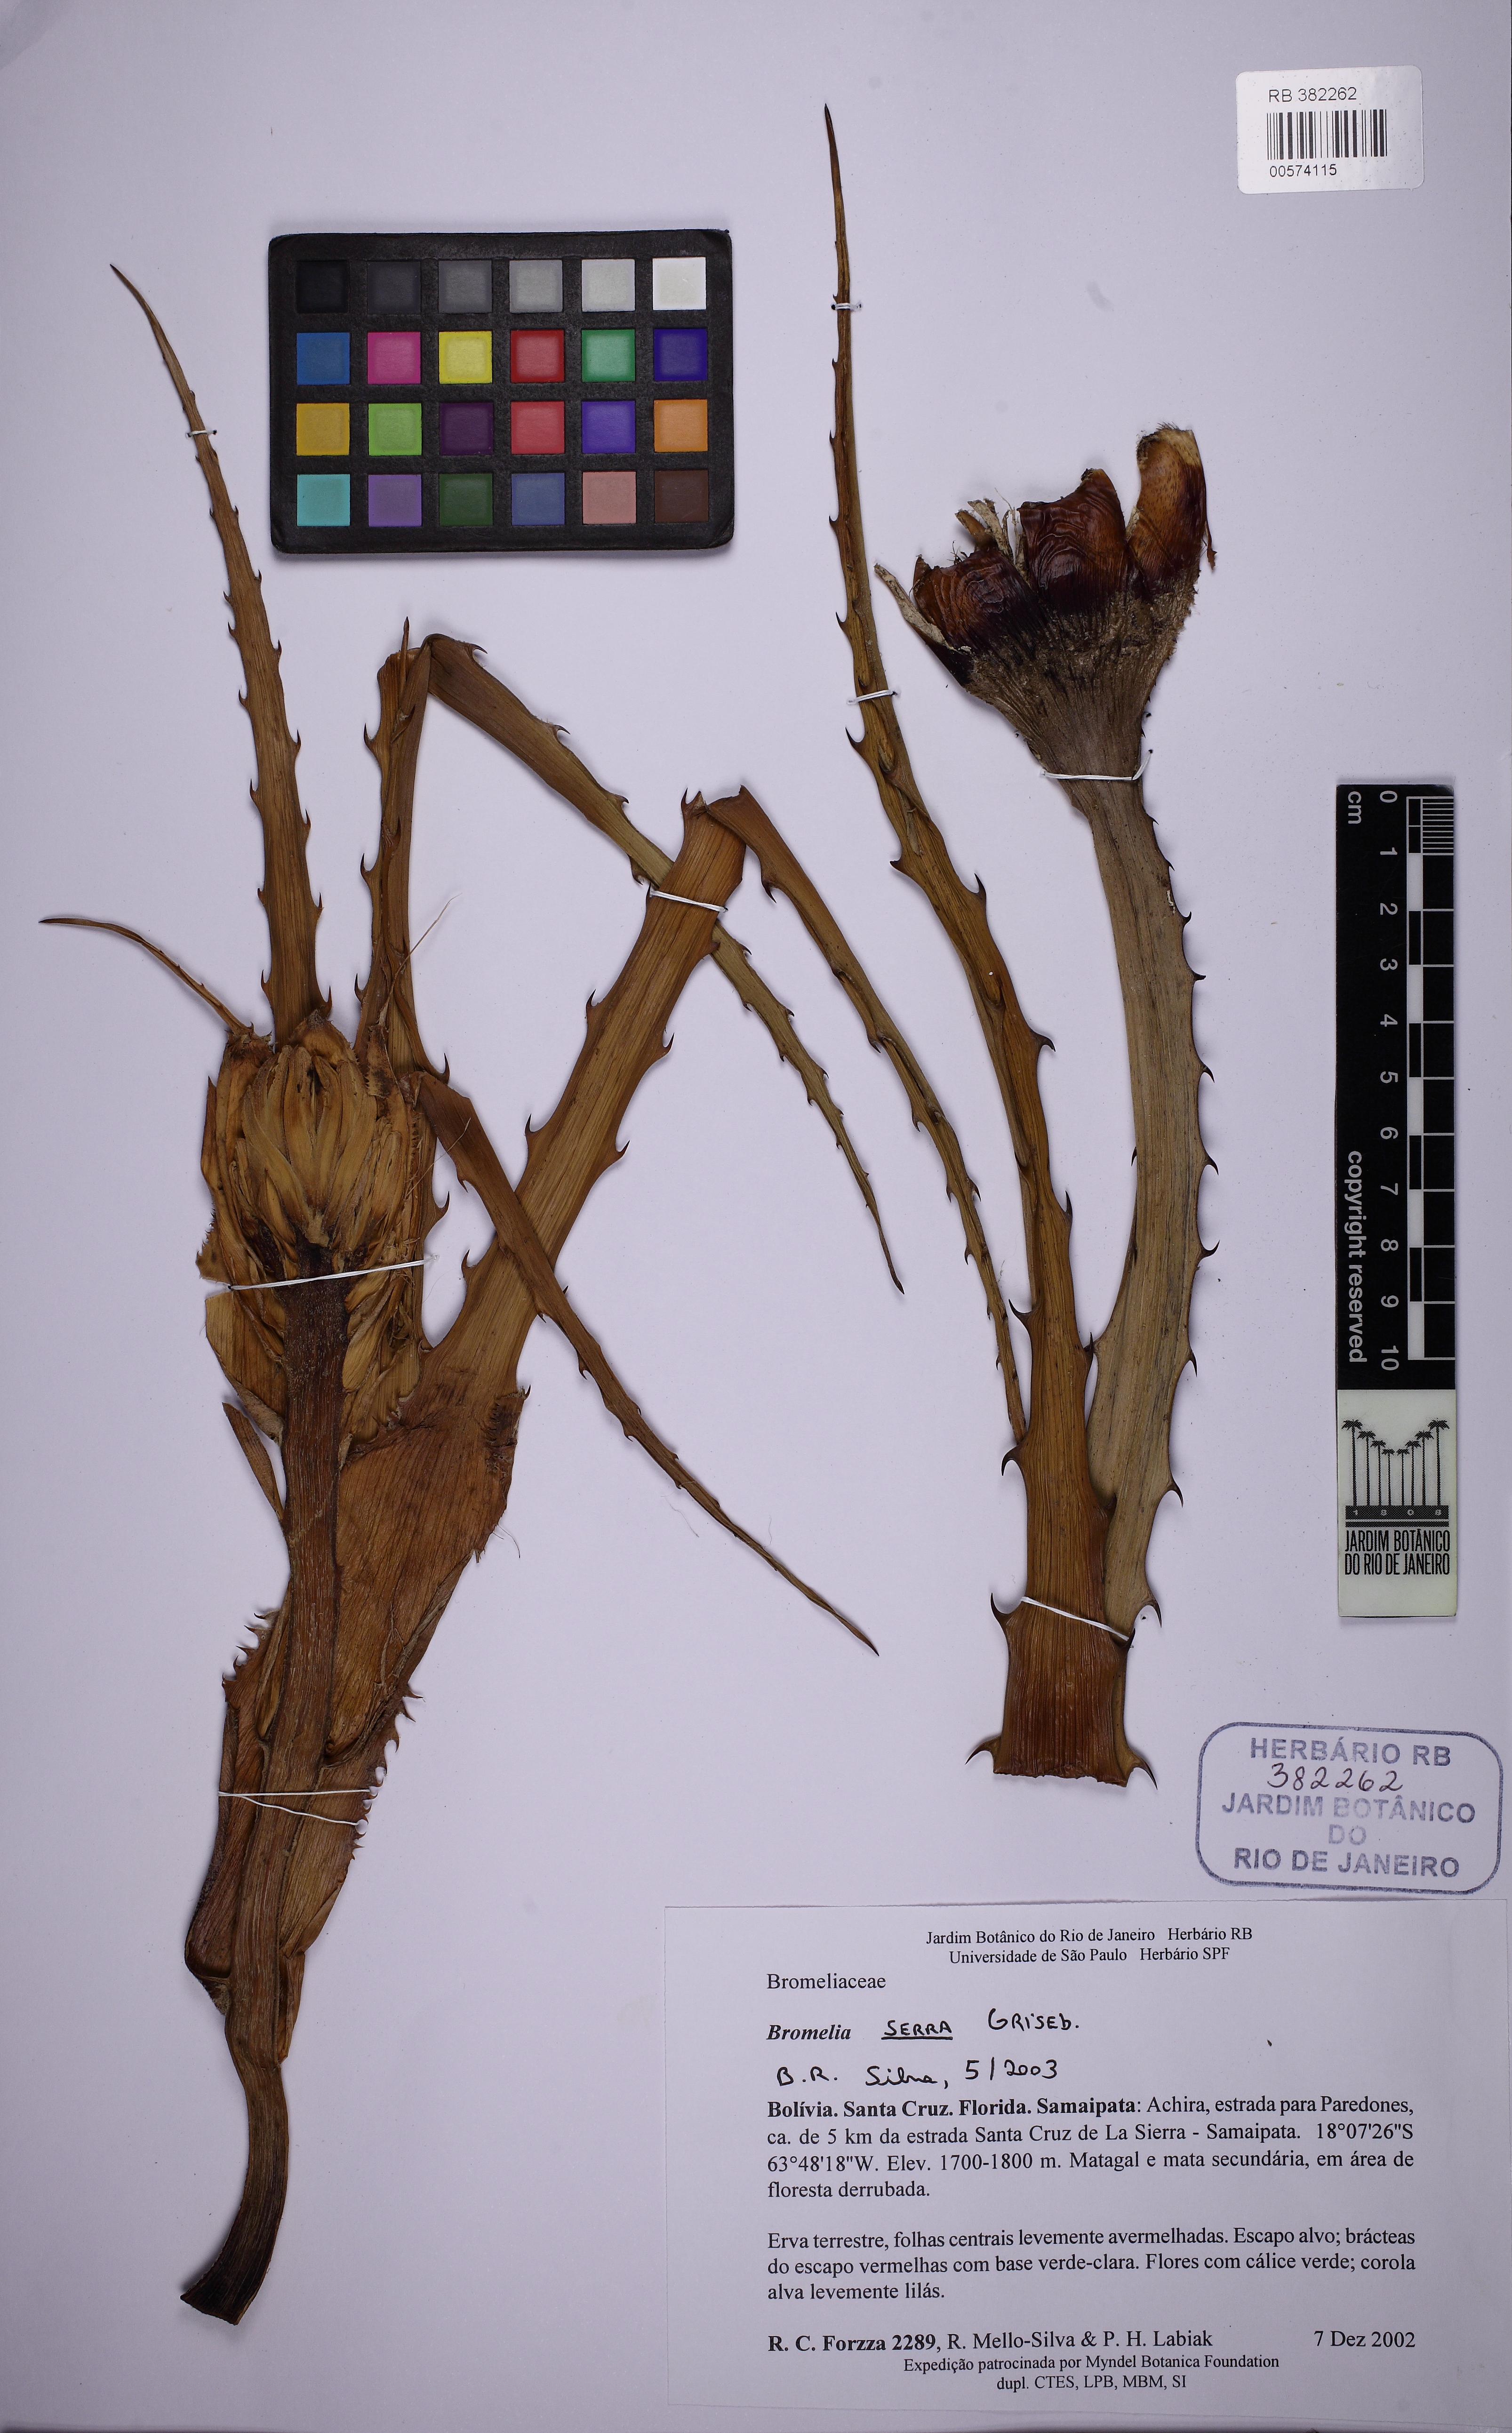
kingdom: Plantae
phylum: Tracheophyta
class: Liliopsida
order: Poales
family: Bromeliaceae
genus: Bromelia
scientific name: Bromelia serra
